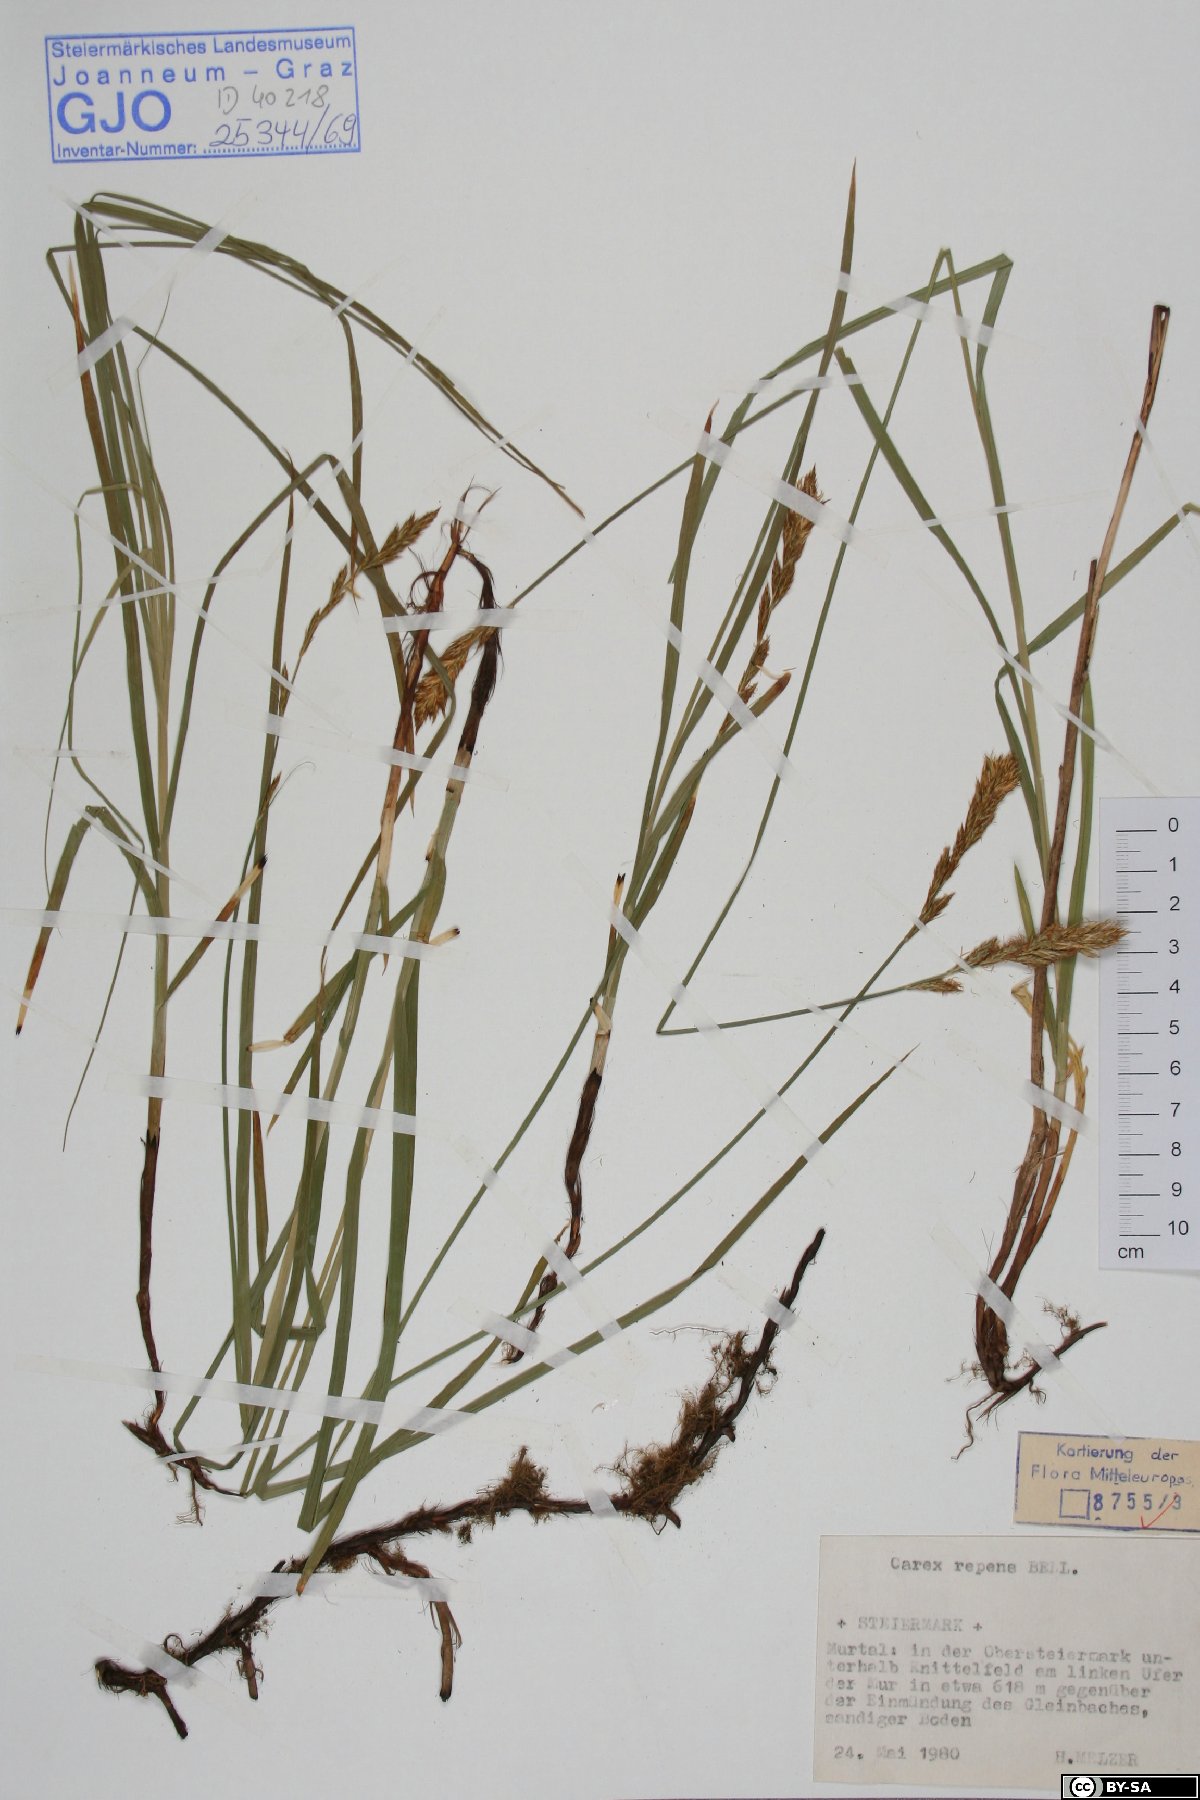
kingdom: Plantae
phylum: Tracheophyta
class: Liliopsida
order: Poales
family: Cyperaceae
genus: Carex
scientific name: Carex repens
